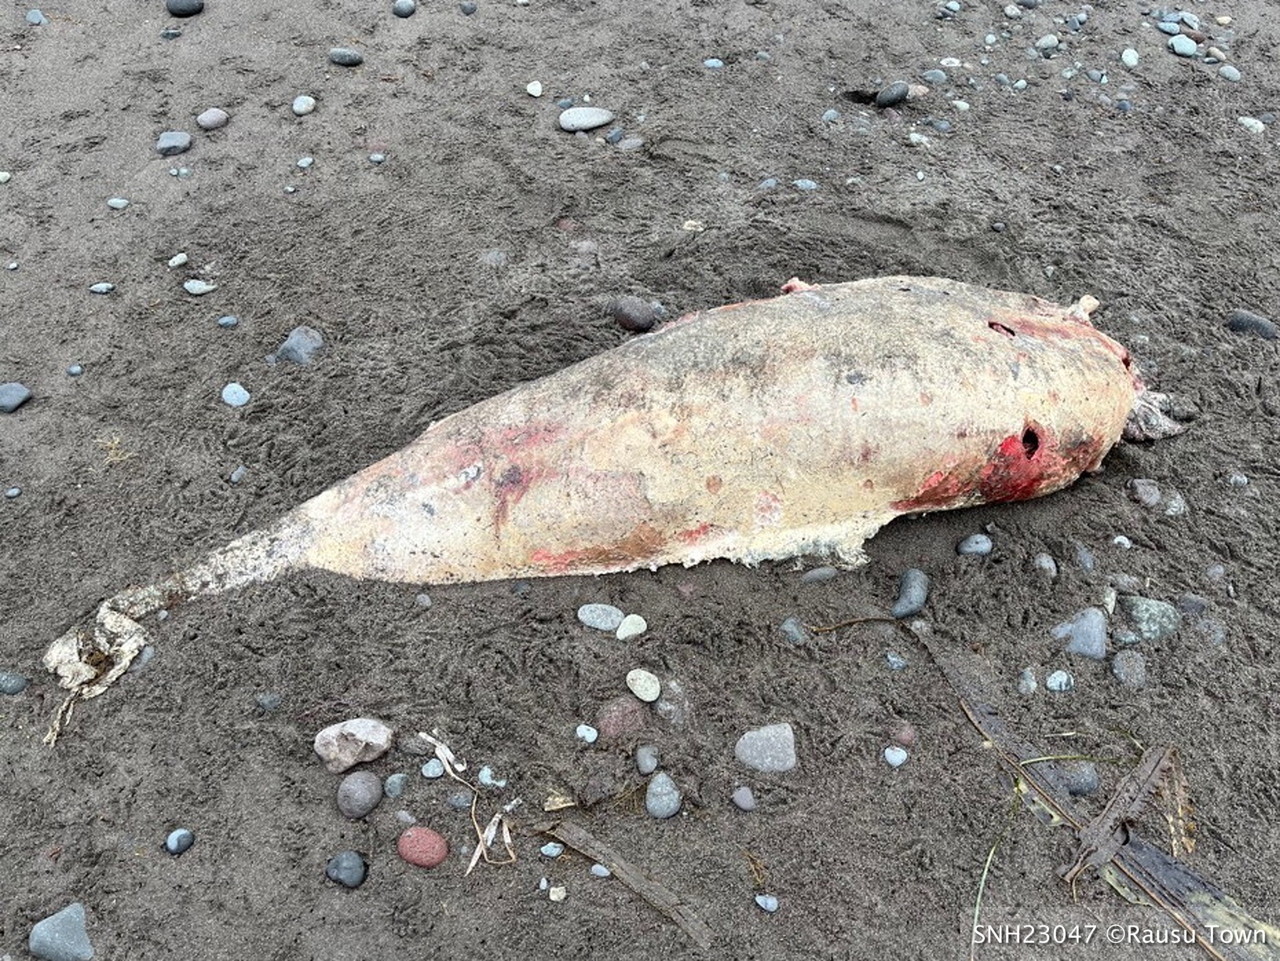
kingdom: Animalia
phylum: Chordata
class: Mammalia
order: Cetacea
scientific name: Cetacea
